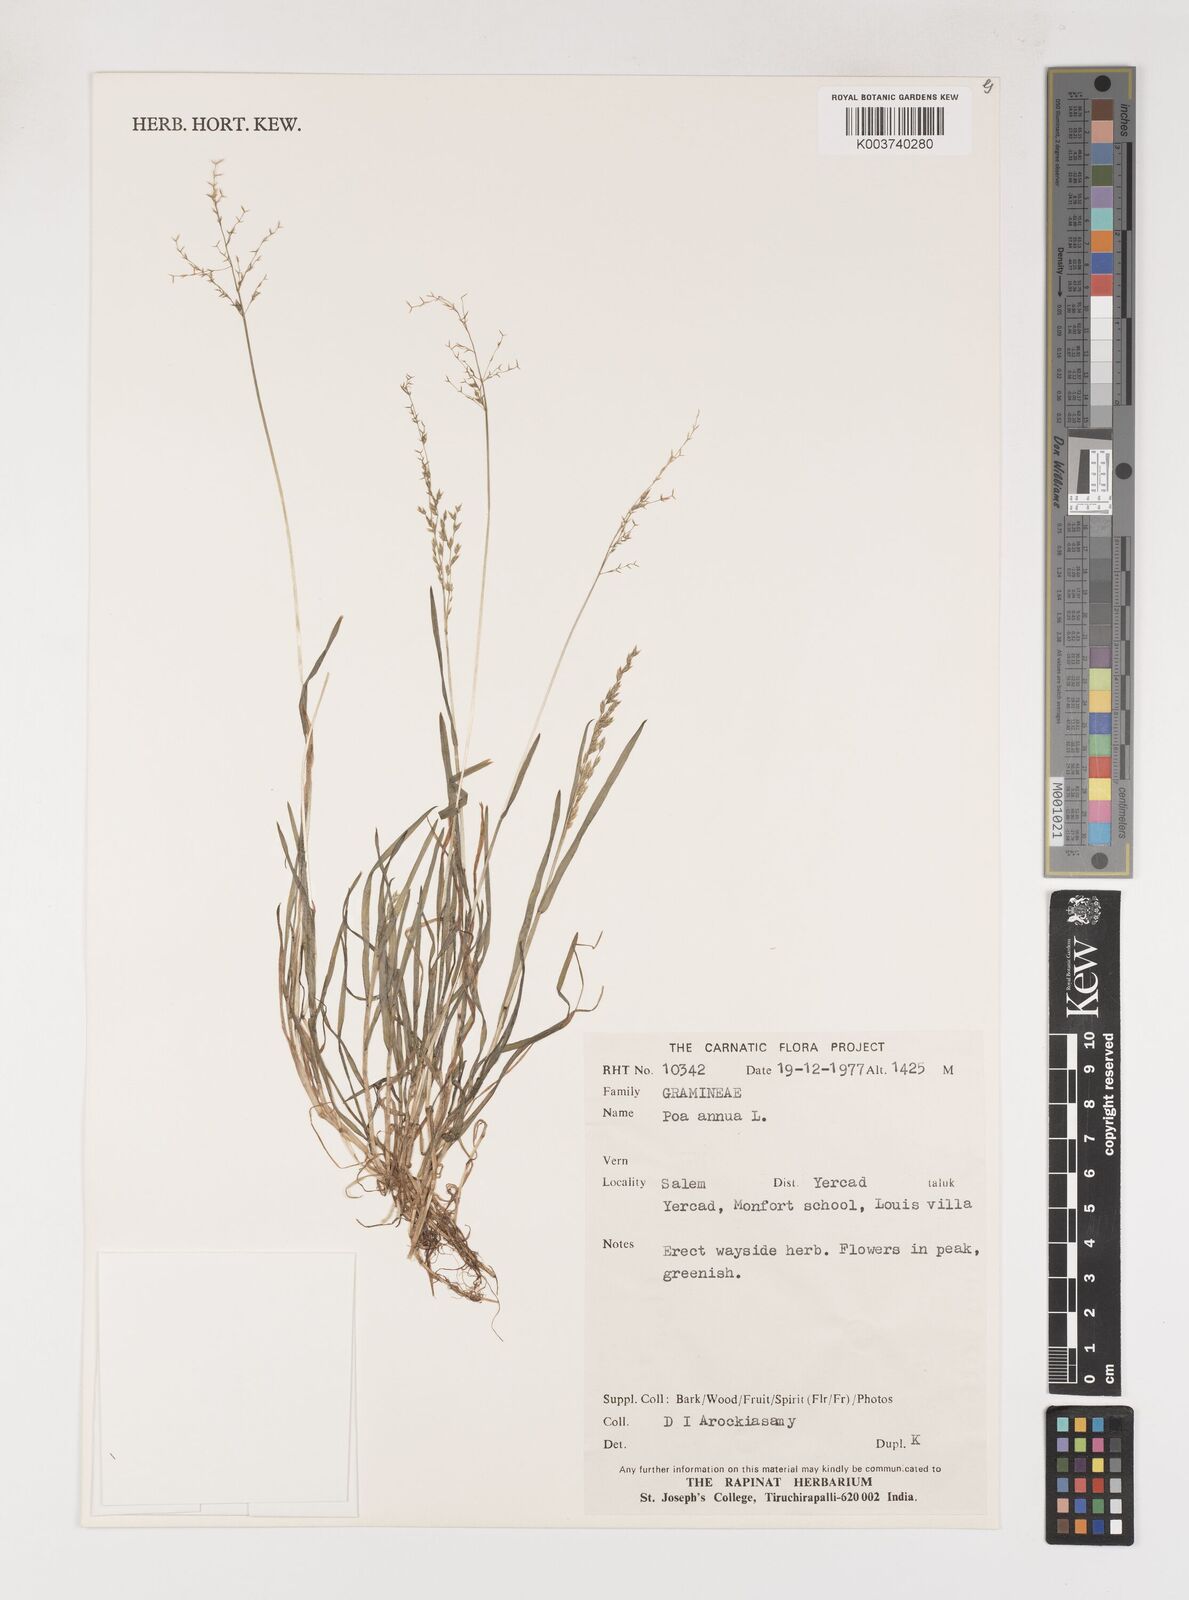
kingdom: Plantae
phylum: Tracheophyta
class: Liliopsida
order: Poales
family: Poaceae
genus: Poa
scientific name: Poa annua
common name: Annual bluegrass
